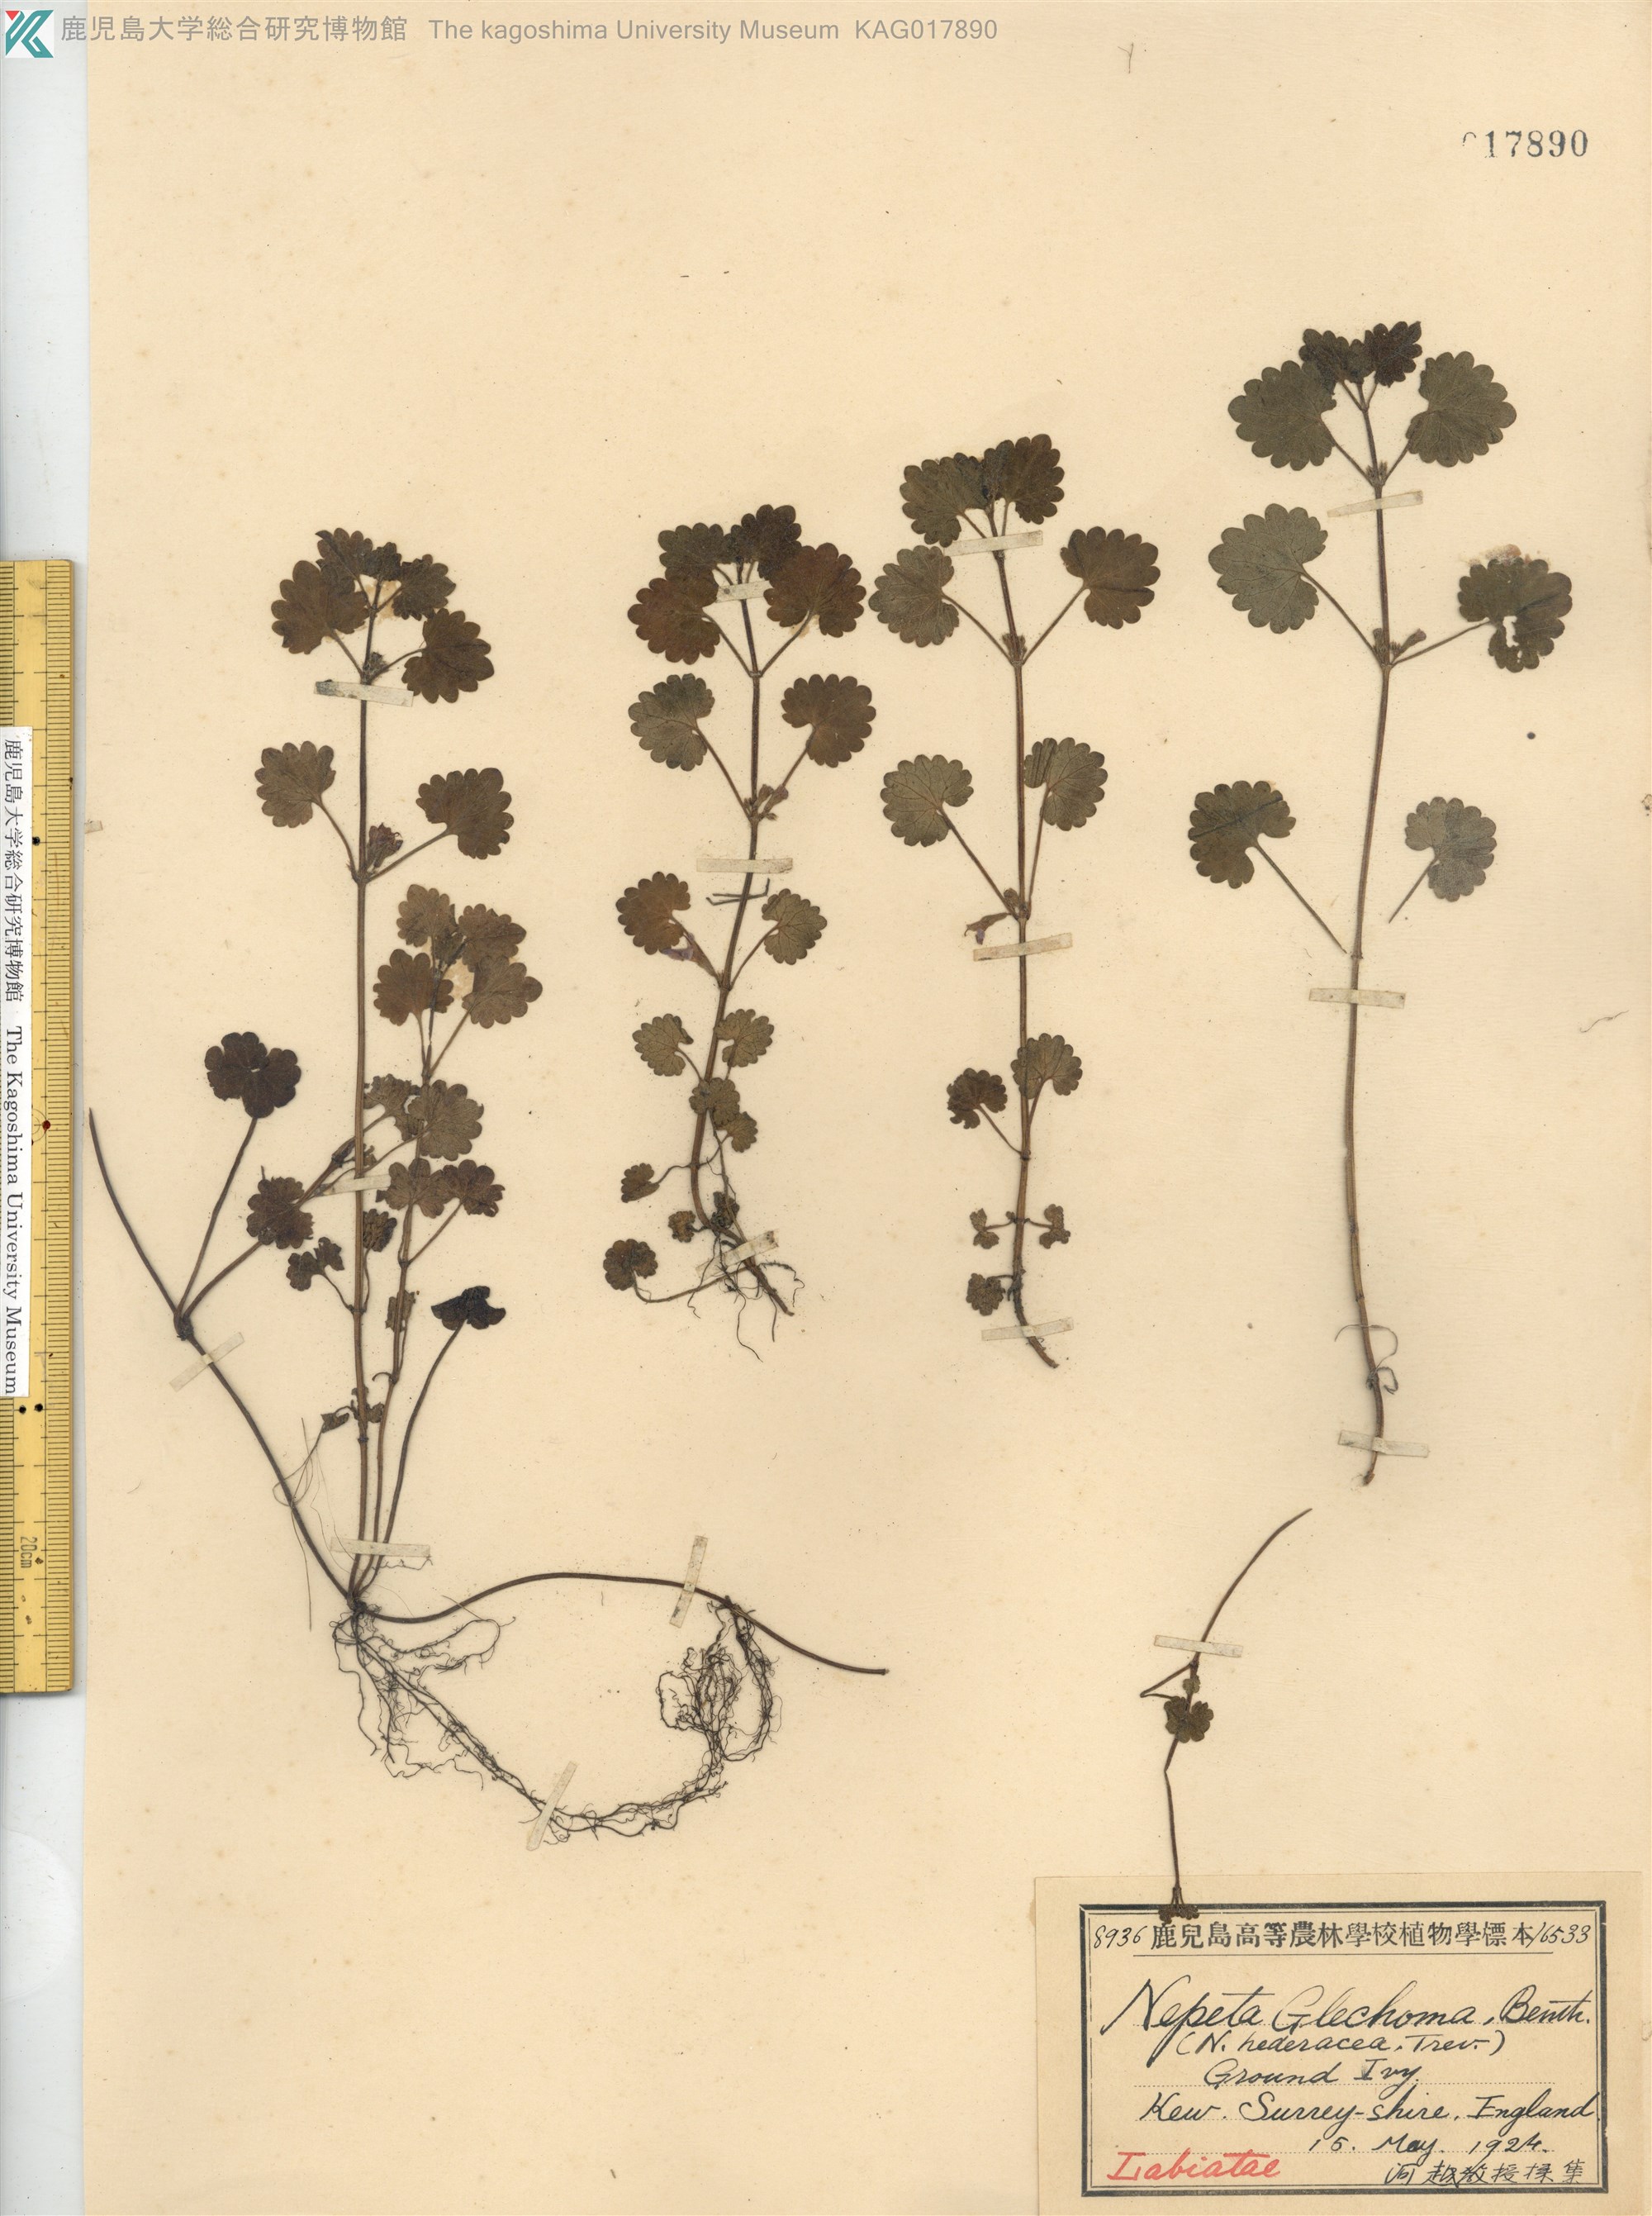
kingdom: Plantae
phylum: Tracheophyta
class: Magnoliopsida
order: Lamiales
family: Lamiaceae
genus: Glechoma
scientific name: Glechoma hederacea
